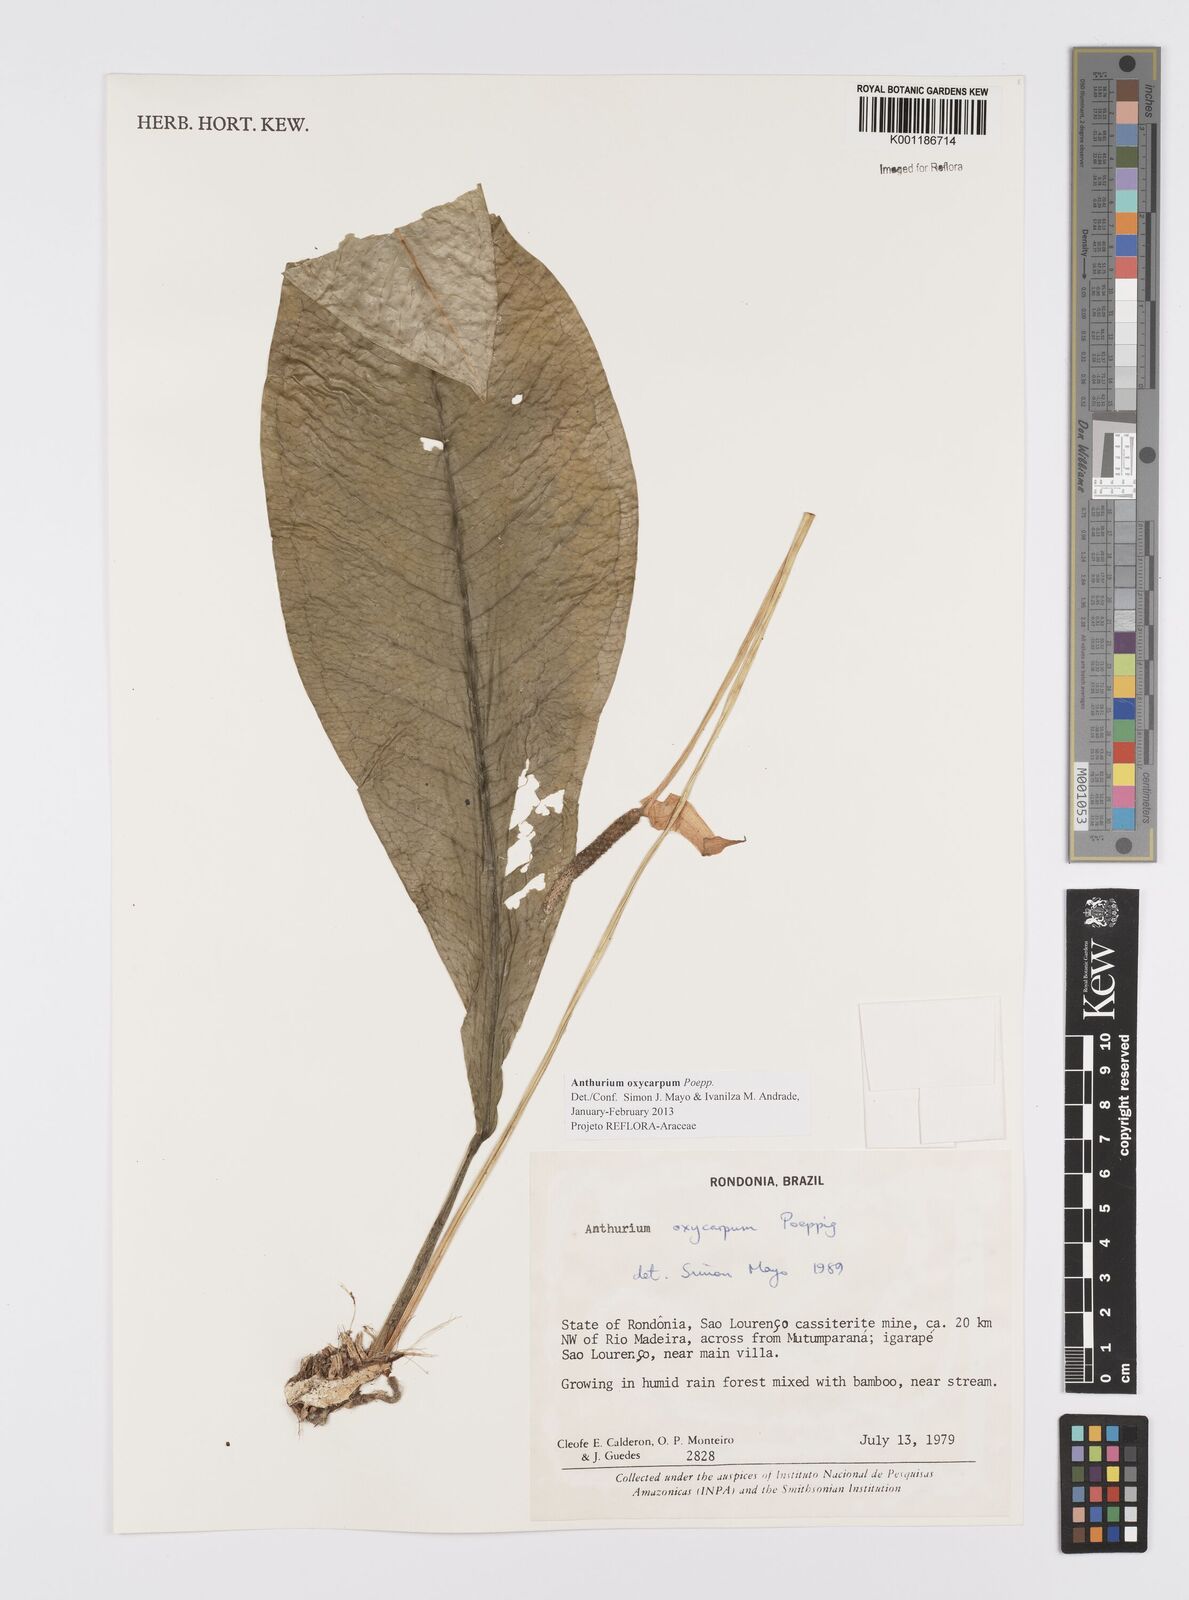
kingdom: Plantae
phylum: Tracheophyta
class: Liliopsida
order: Alismatales
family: Araceae
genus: Anthurium
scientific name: Anthurium oxycarpum
